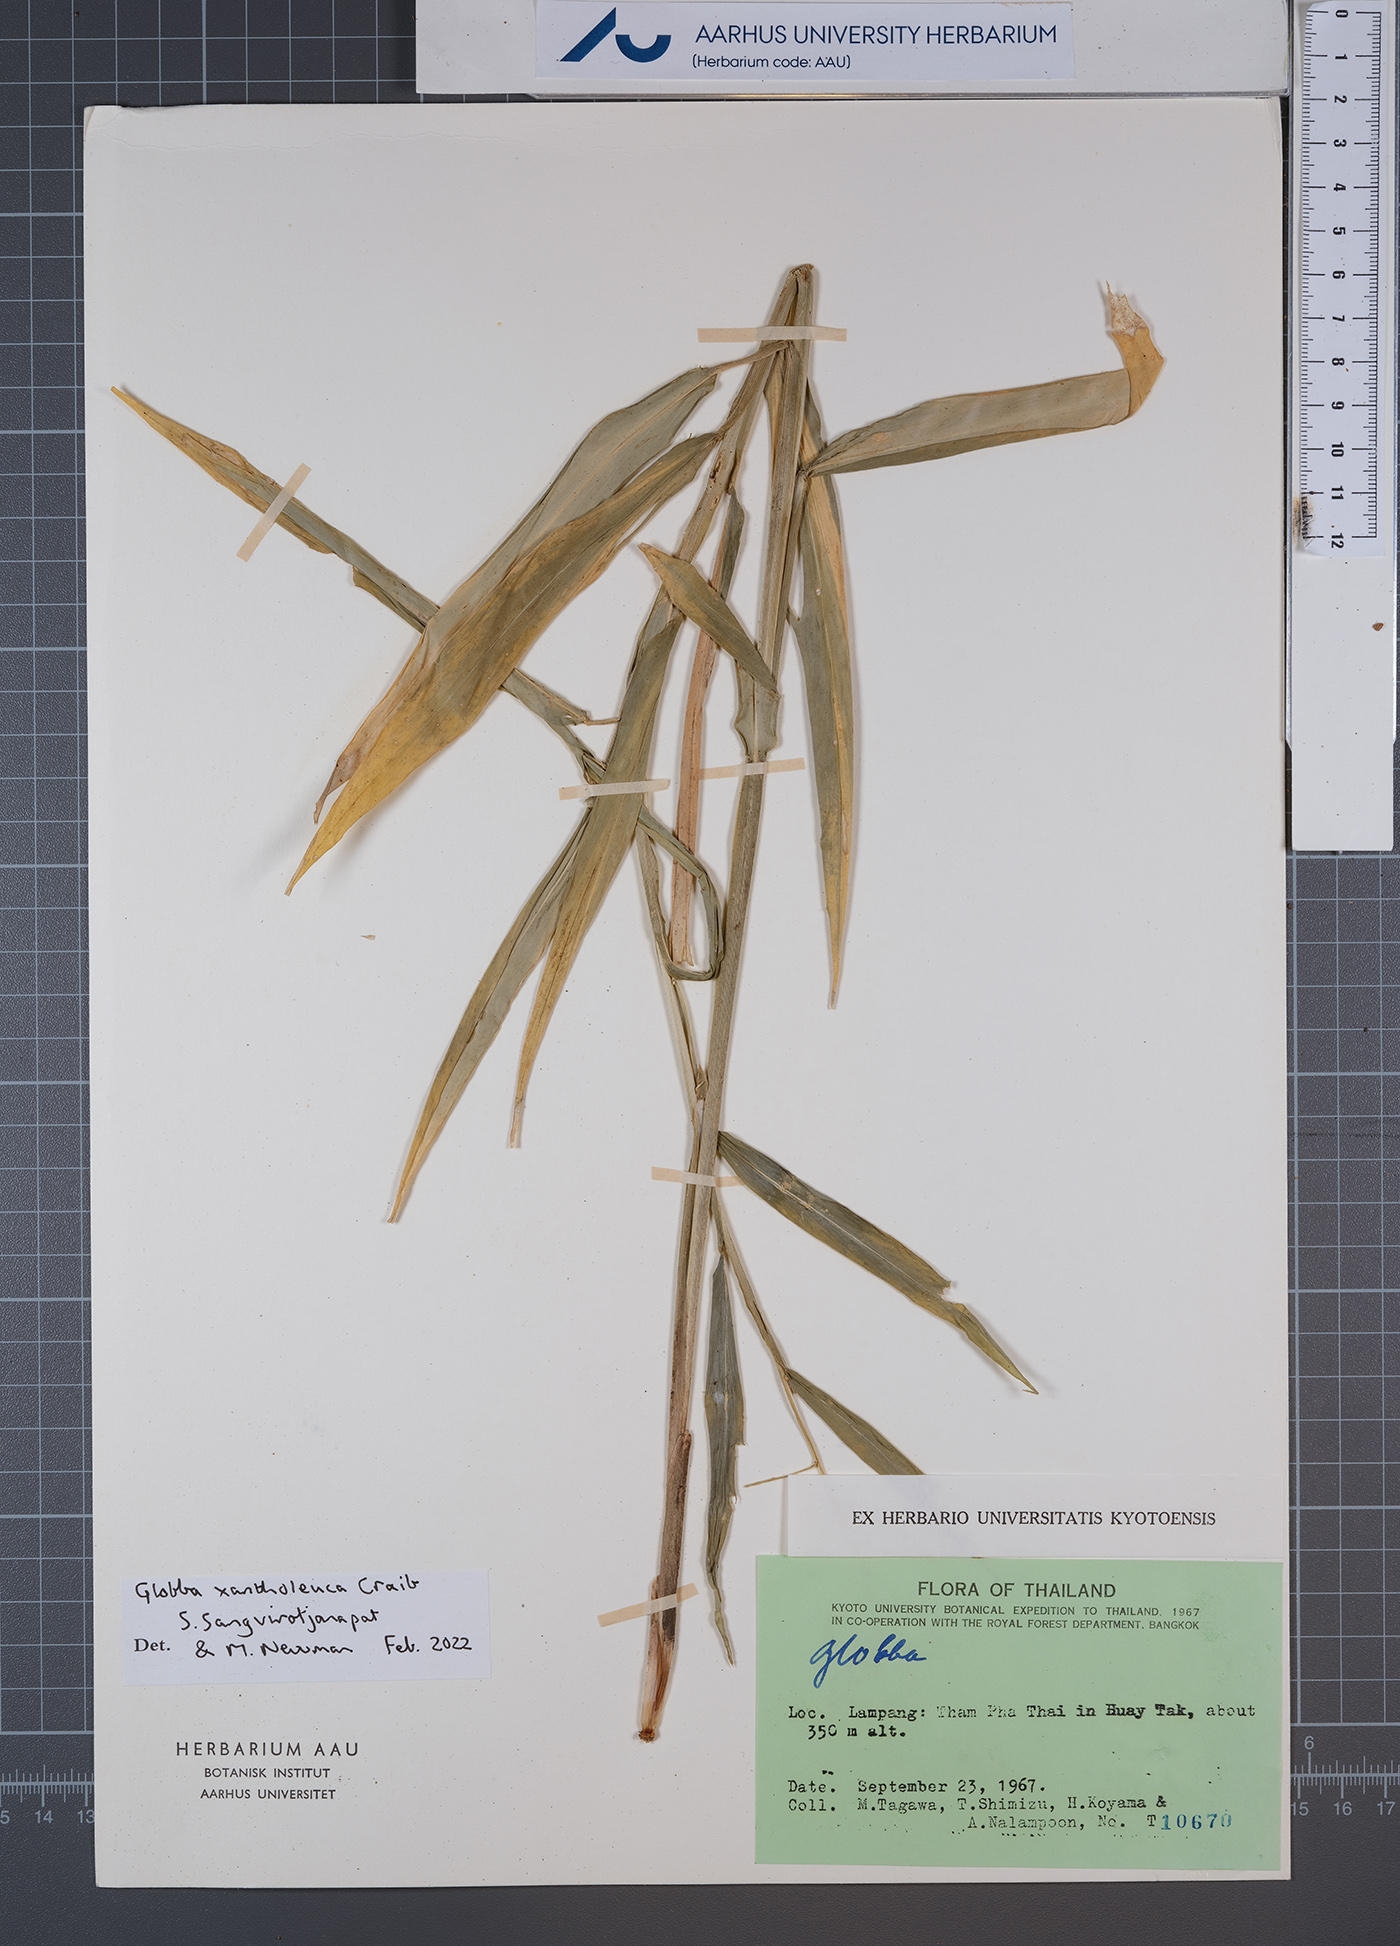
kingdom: Plantae
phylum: Tracheophyta
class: Liliopsida
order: Zingiberales
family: Zingiberaceae
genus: Globba
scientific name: Globba xantholeuca
